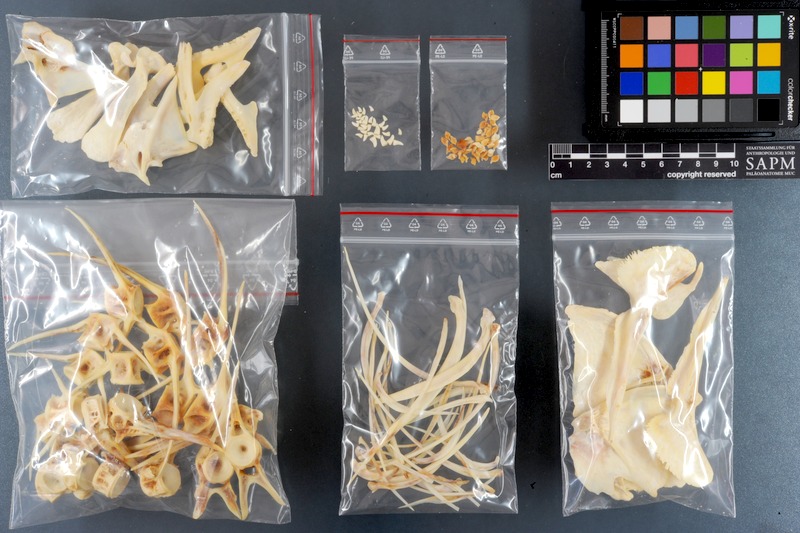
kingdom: Animalia
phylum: Chordata
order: Perciformes
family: Sparidae
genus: Oblada
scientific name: Oblada melanura
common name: Saddled seabream
